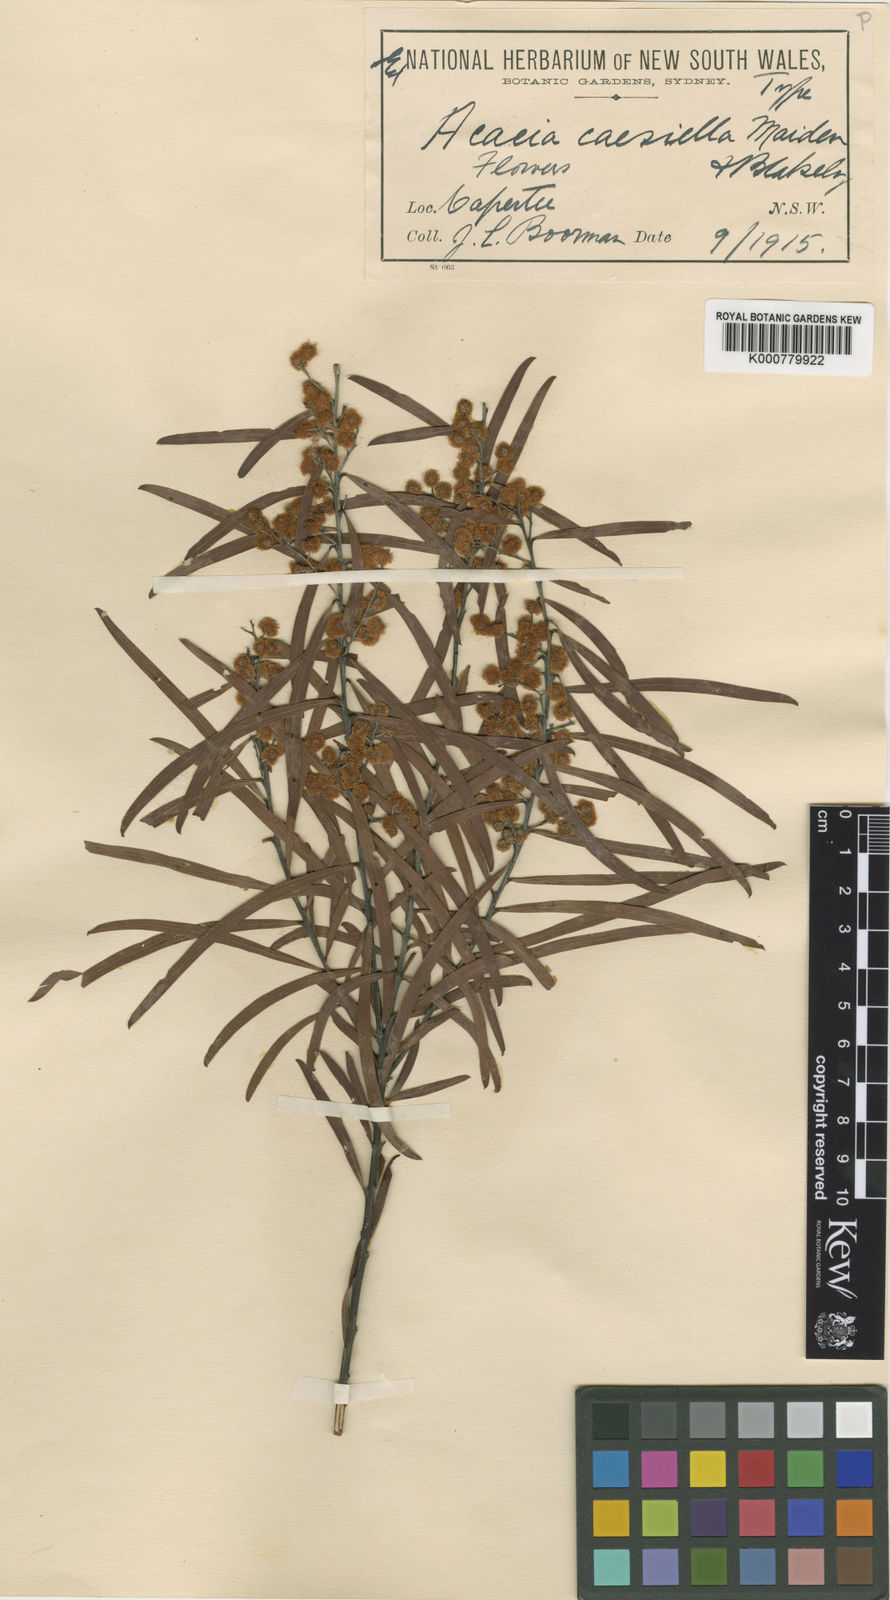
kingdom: Plantae
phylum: Tracheophyta
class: Magnoliopsida
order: Fabales
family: Fabaceae
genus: Acacia
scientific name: Acacia caesiella
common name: Tableland wattle
